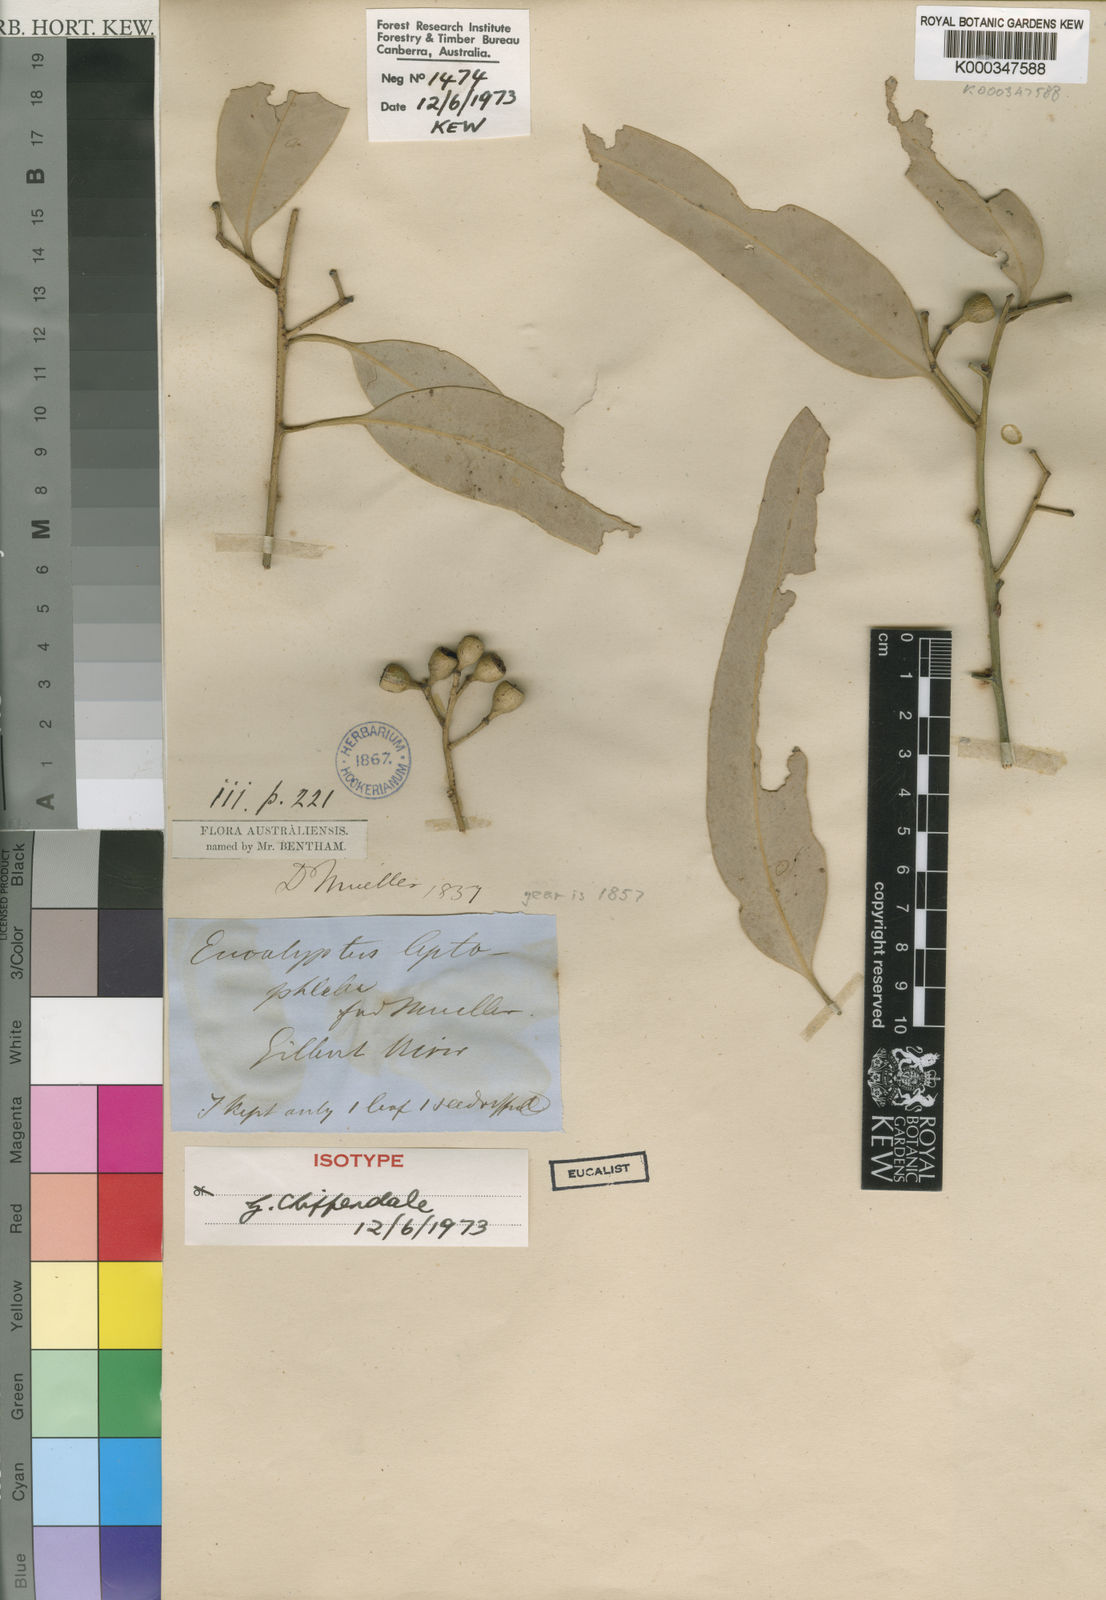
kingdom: Plantae
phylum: Tracheophyta
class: Magnoliopsida
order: Myrtales
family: Myrtaceae
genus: Eucalyptus
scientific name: Eucalyptus leptophleba
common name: Molloy-box
